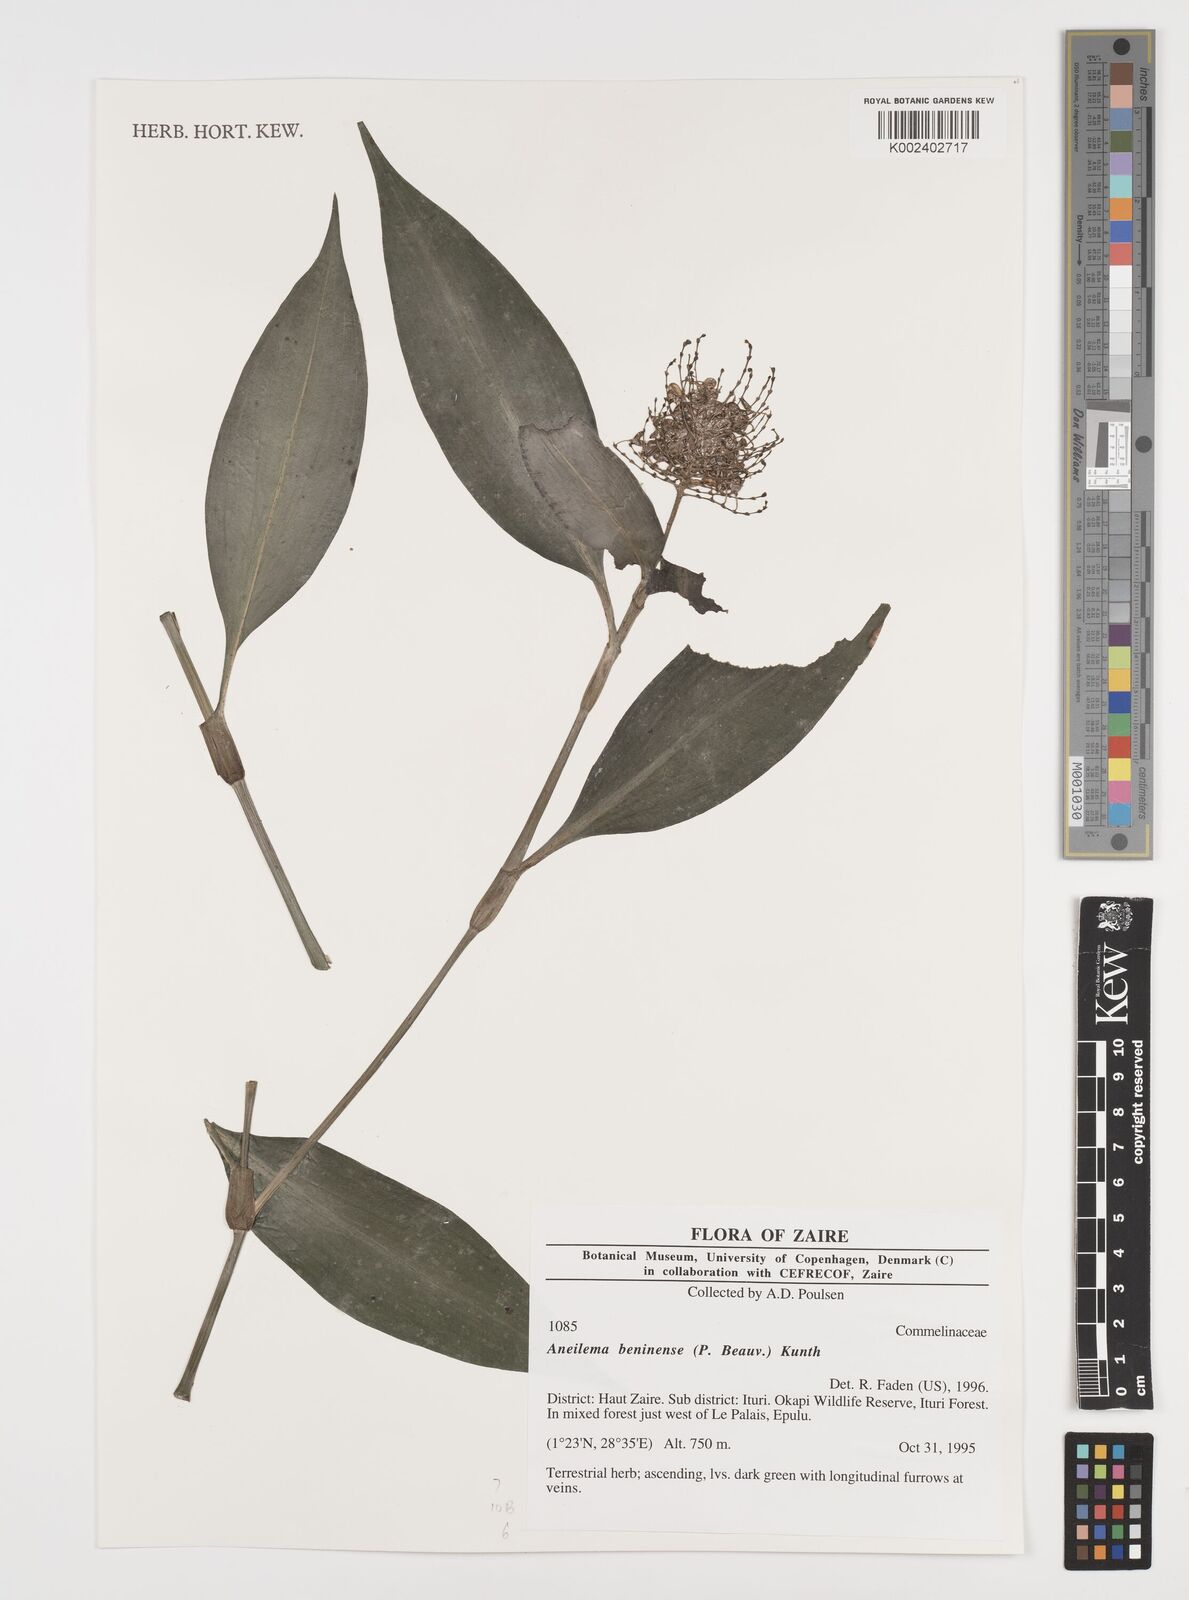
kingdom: Plantae
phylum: Tracheophyta
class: Liliopsida
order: Commelinales
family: Commelinaceae
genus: Aneilema
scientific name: Aneilema beniniense
